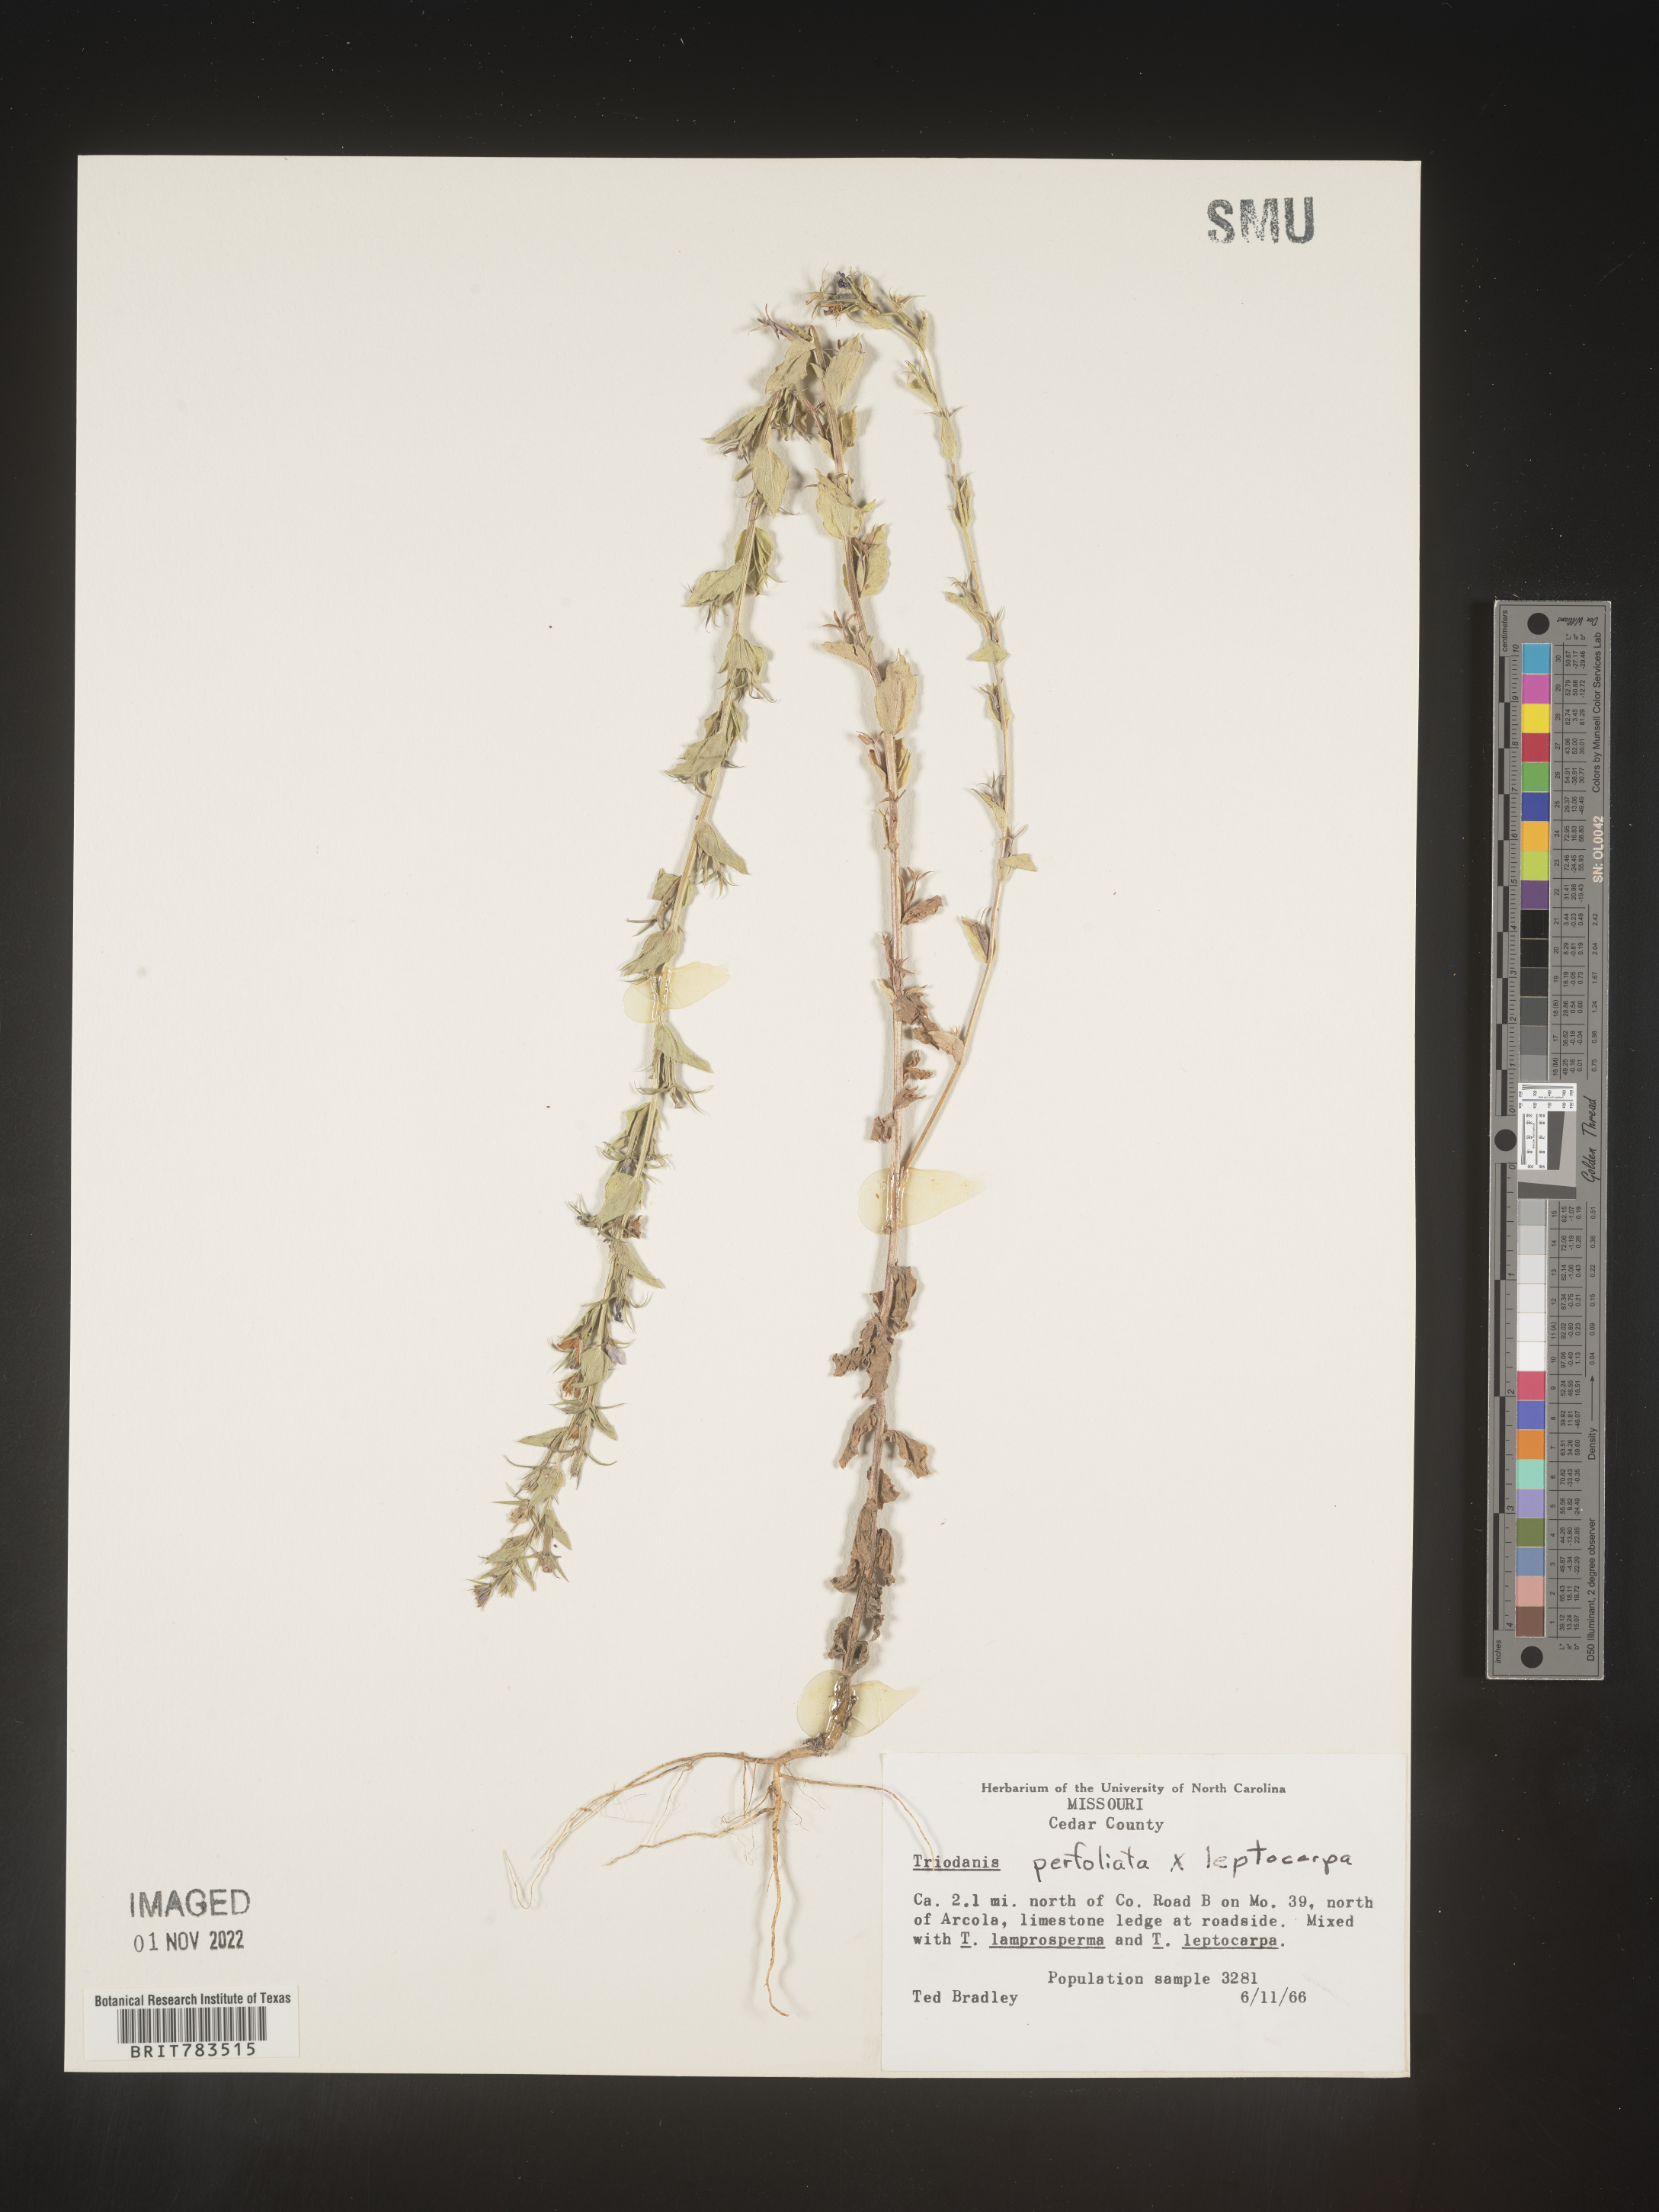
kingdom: Plantae
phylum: Tracheophyta
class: Magnoliopsida
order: Asterales
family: Campanulaceae
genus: Triodanis
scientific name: Triodanis leptocarpa
